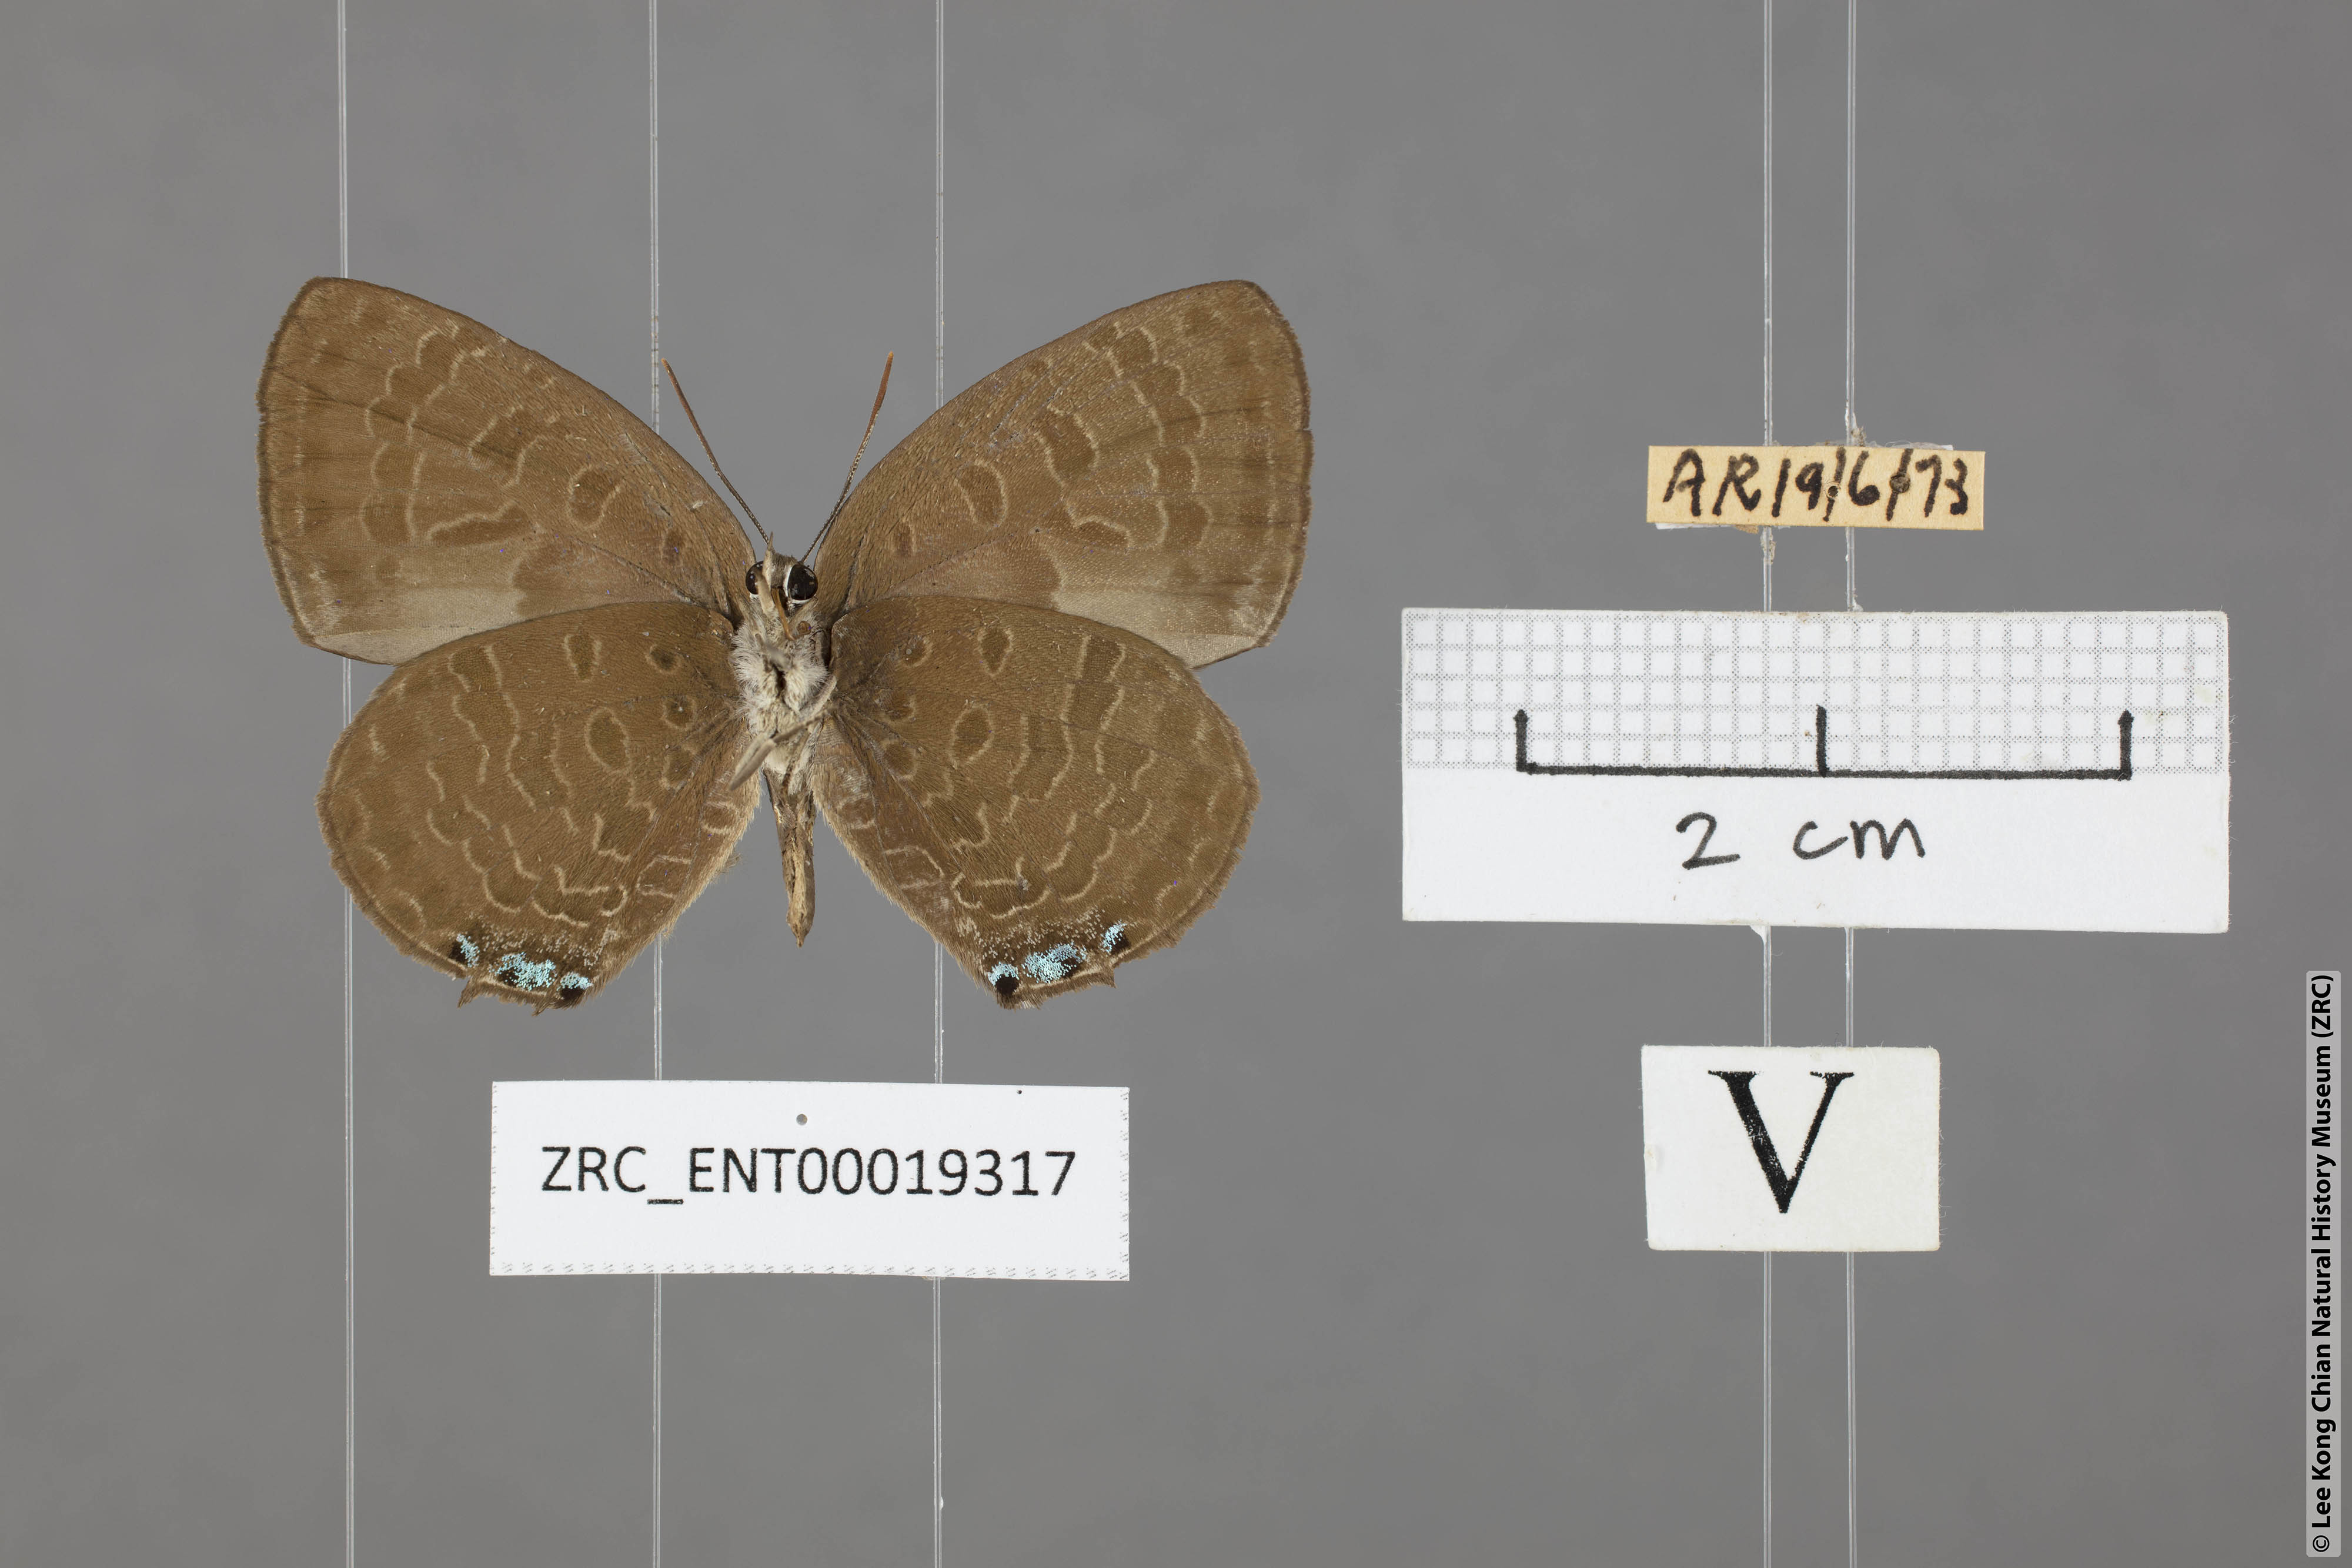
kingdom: Animalia
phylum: Arthropoda
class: Insecta
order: Lepidoptera
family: Lycaenidae
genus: Arhopala
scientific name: Arhopala buddha
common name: Buddha oakblue
